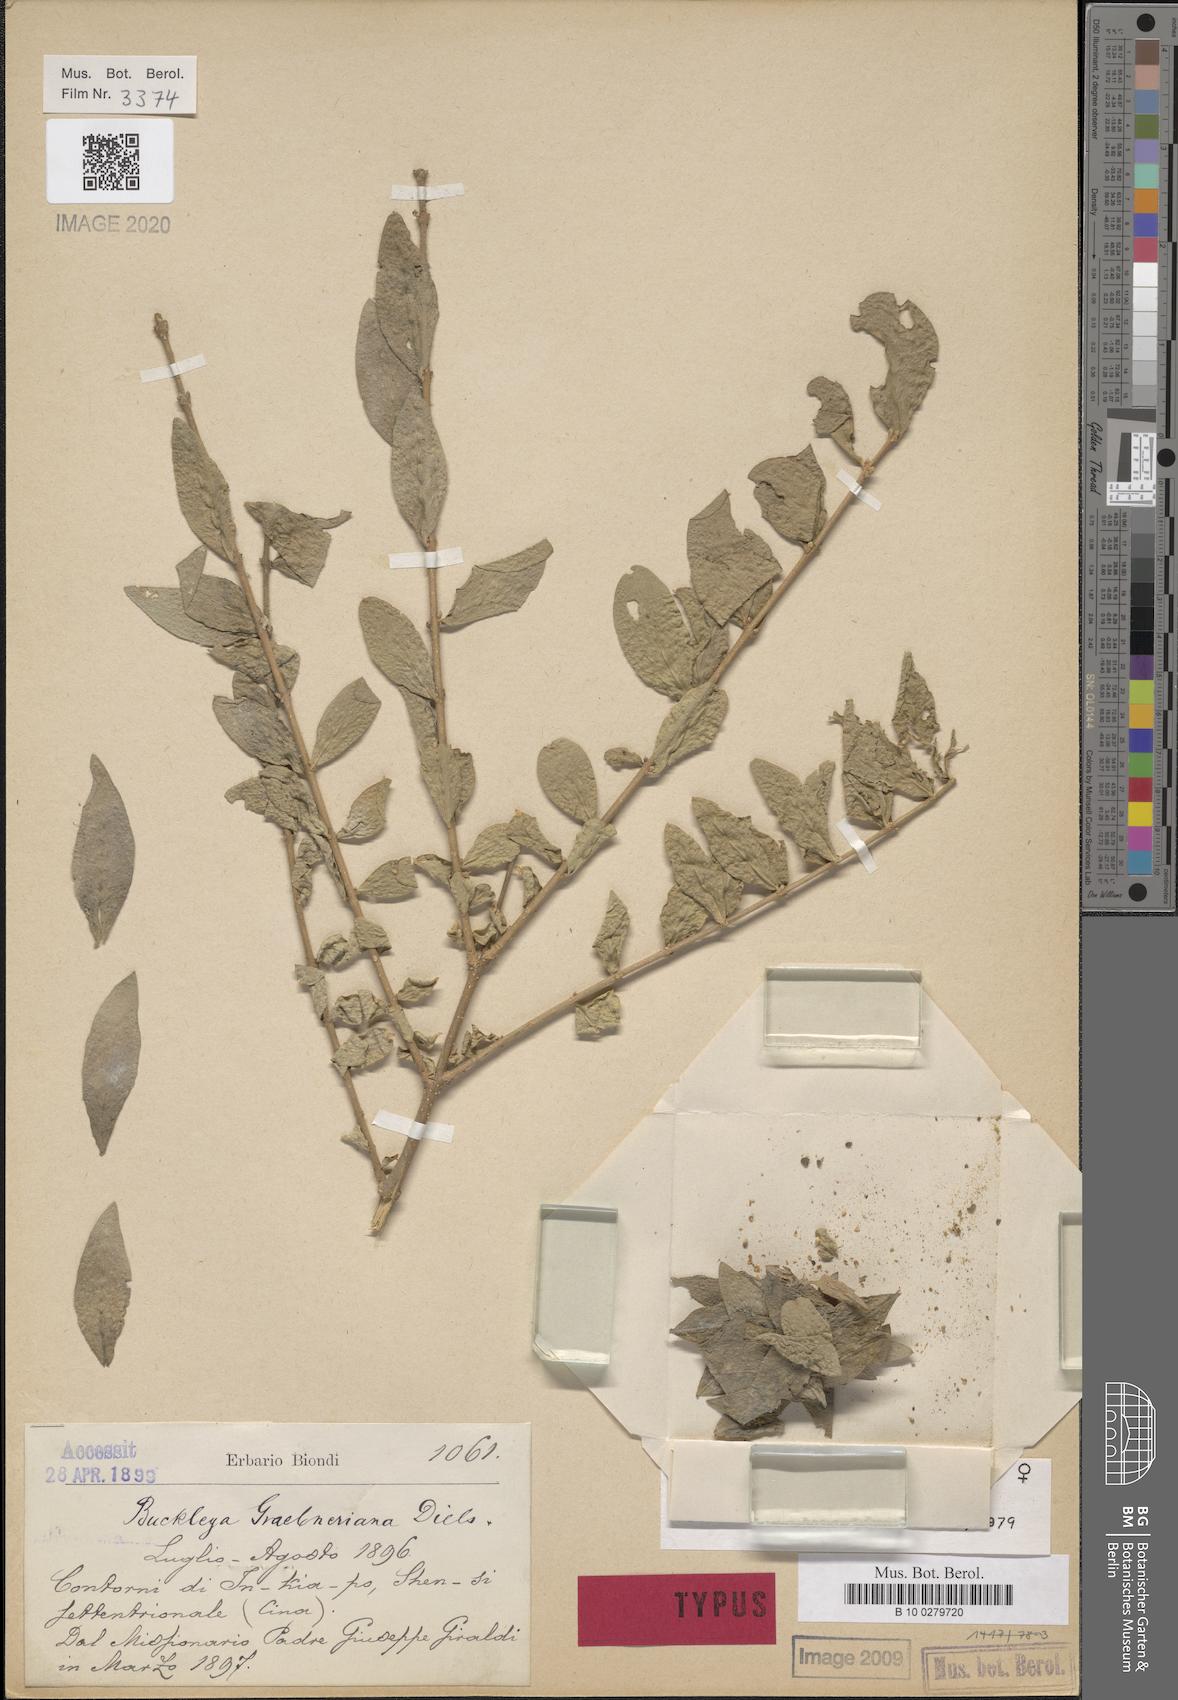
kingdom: Plantae
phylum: Tracheophyta
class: Magnoliopsida
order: Santalales
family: Thesiaceae
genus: Buckleya
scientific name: Buckleya graebneriana
